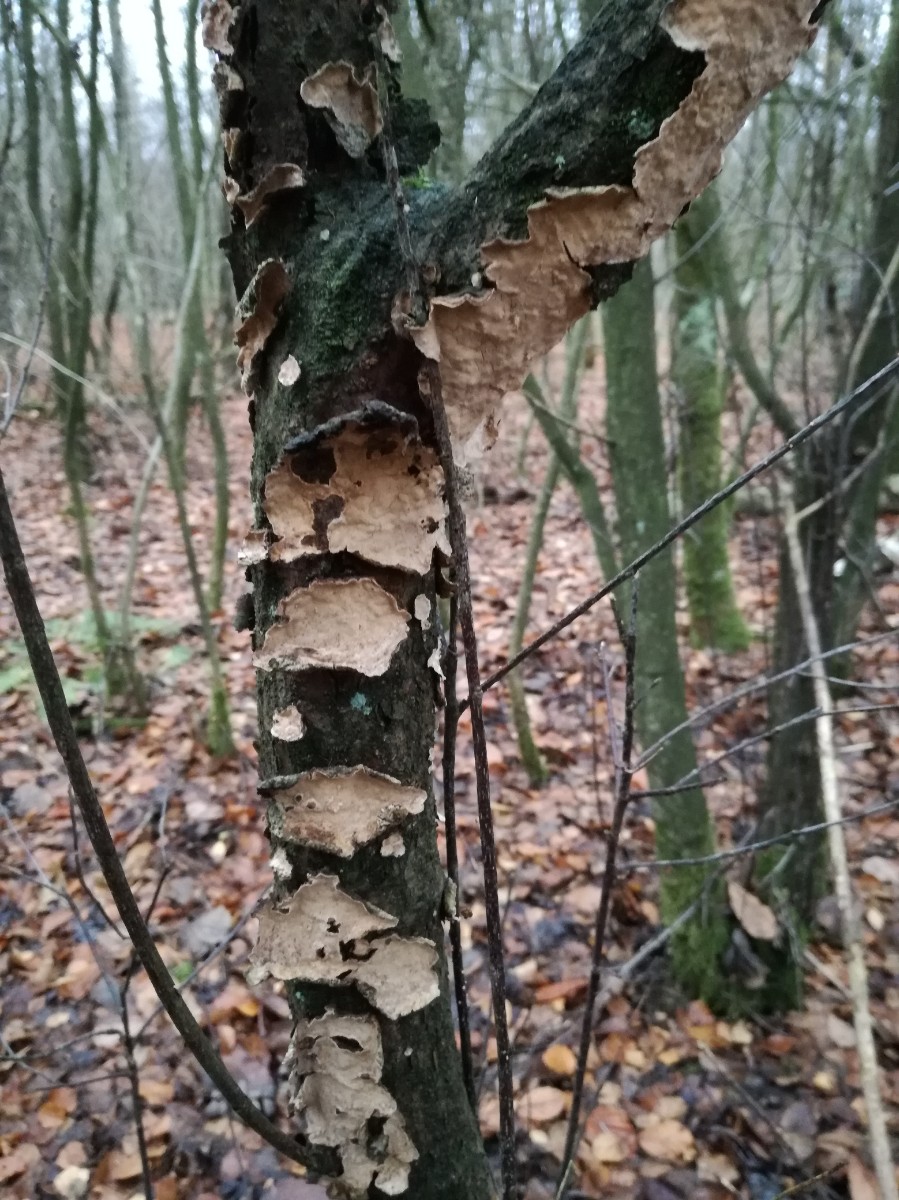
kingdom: Fungi
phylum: Basidiomycota
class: Agaricomycetes
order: Russulales
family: Stereaceae
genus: Stereum
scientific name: Stereum rugosum
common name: rynket lædersvamp
